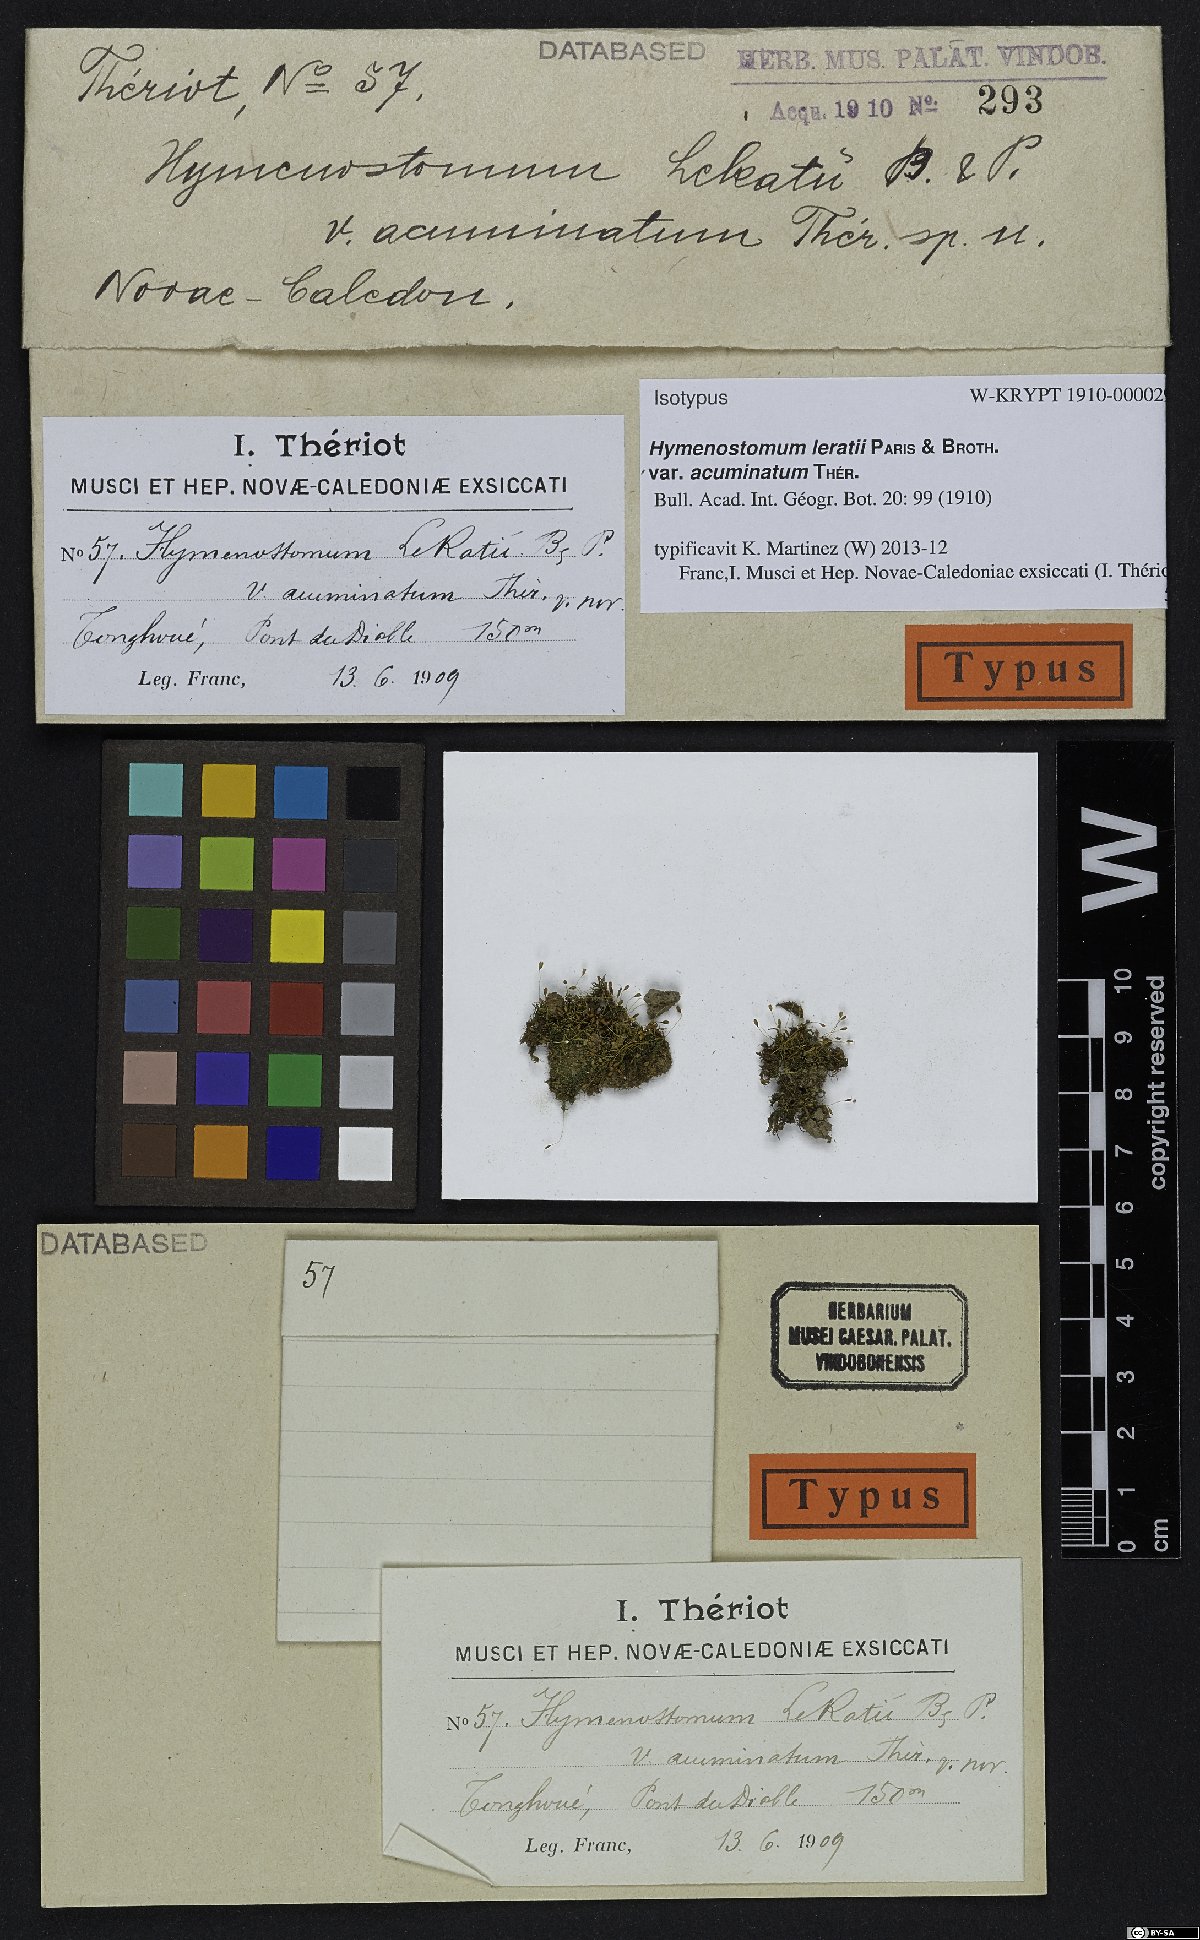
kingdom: Plantae
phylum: Bryophyta
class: Bryopsida
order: Pottiales
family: Pottiaceae
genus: Weissia
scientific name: Weissia leratii
